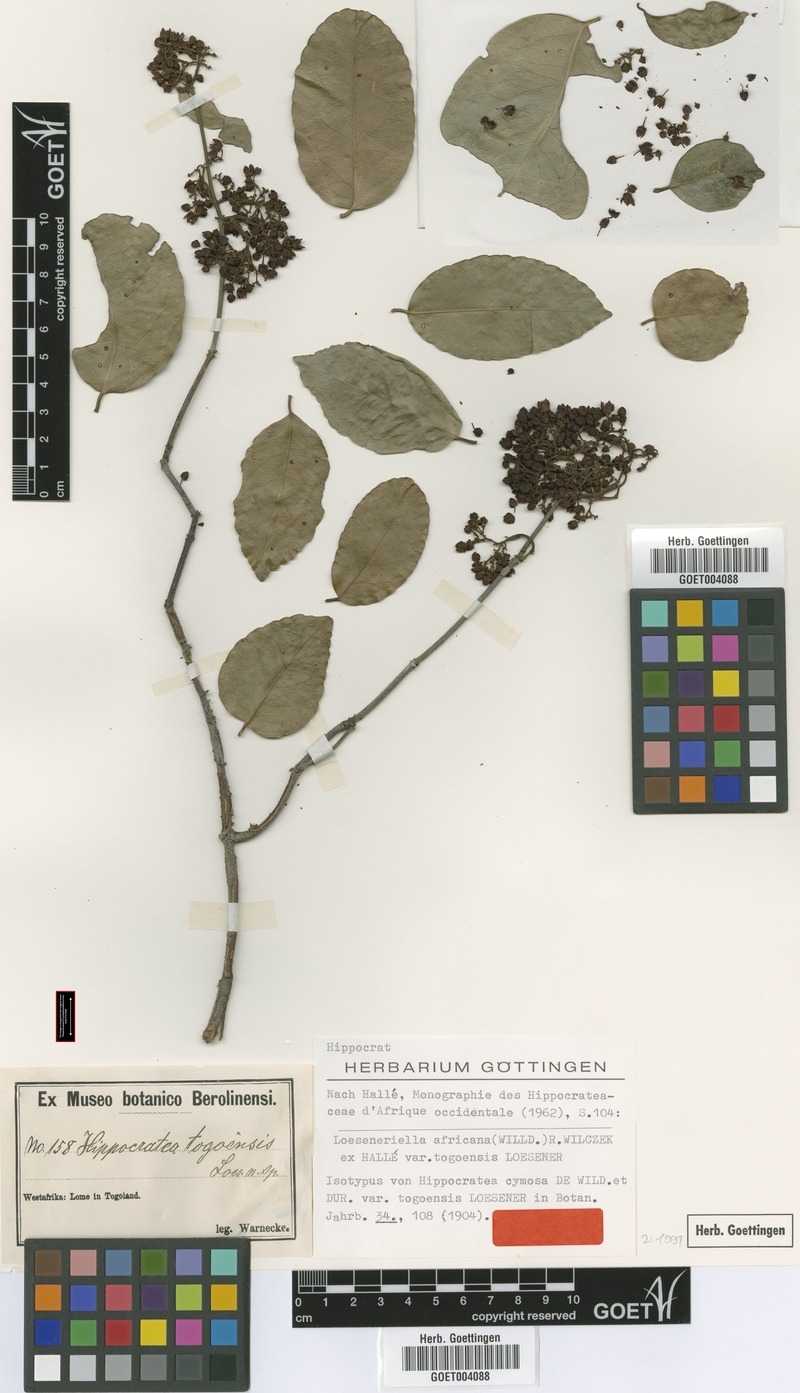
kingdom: Plantae
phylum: Tracheophyta
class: Magnoliopsida
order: Celastrales
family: Celastraceae
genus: Loeseneriella
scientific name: Loeseneriella africana
